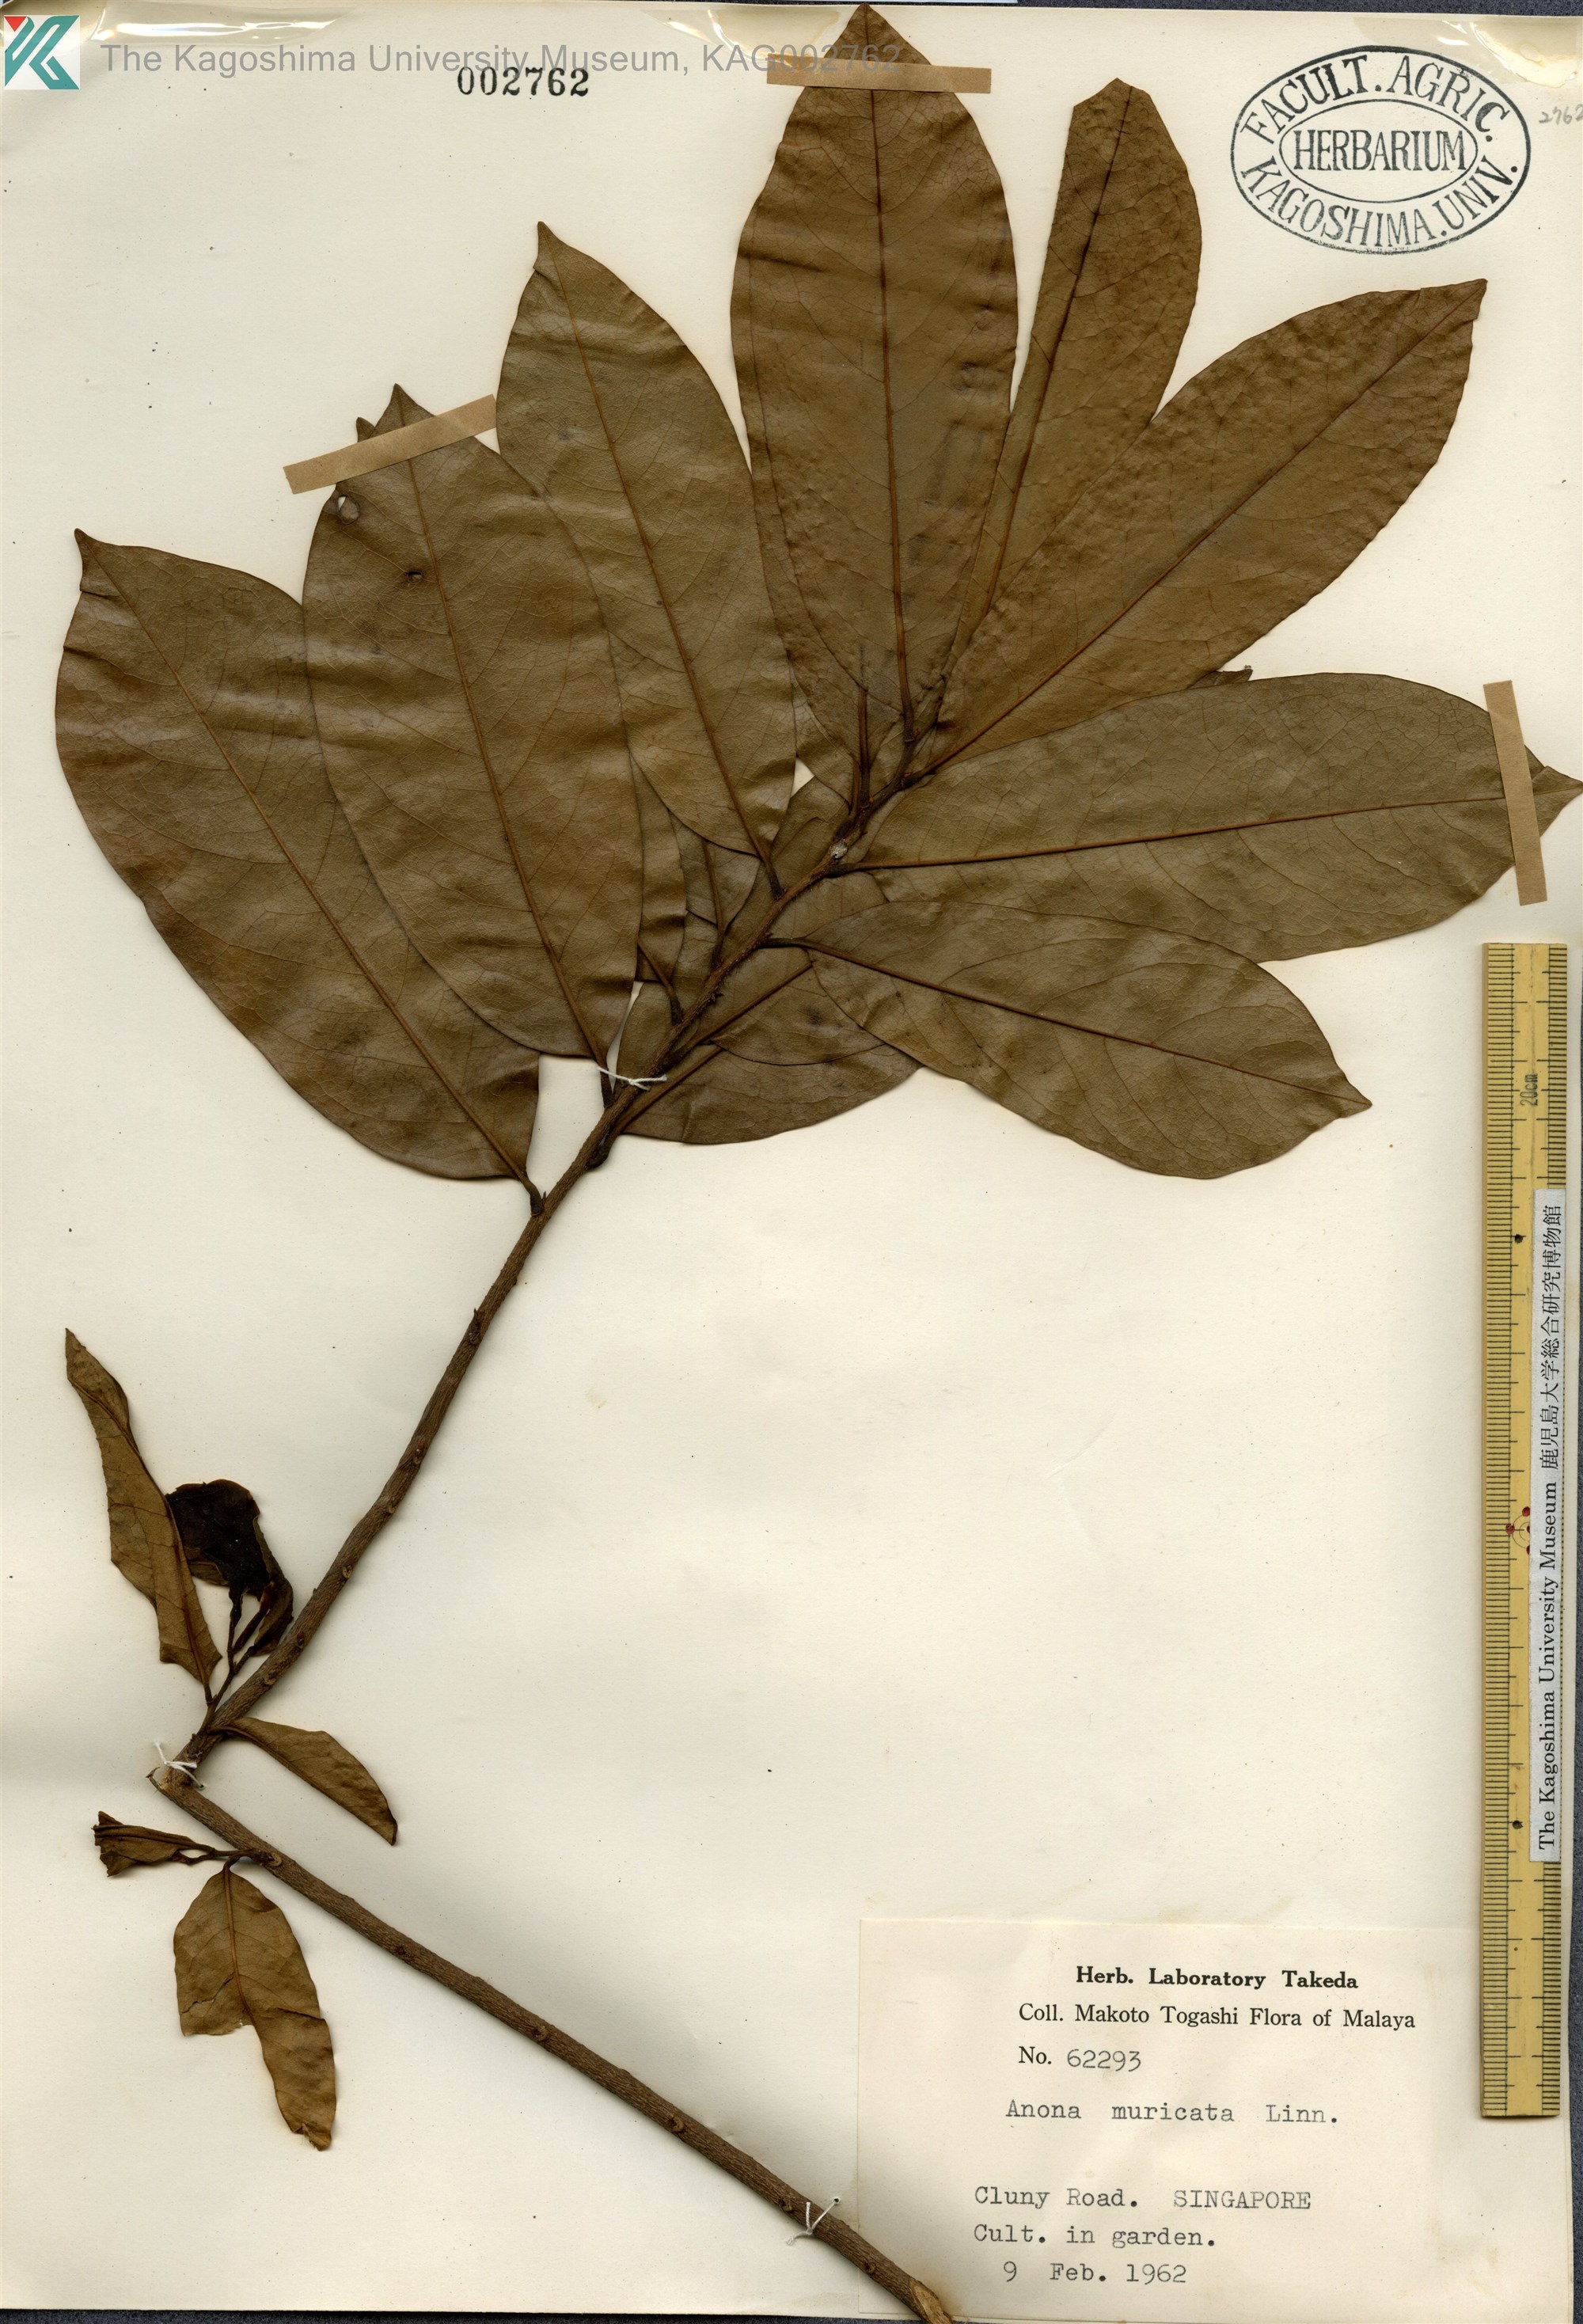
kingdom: Plantae
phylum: Tracheophyta
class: Magnoliopsida
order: Magnoliales
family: Annonaceae
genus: Annona
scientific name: Annona muricata
